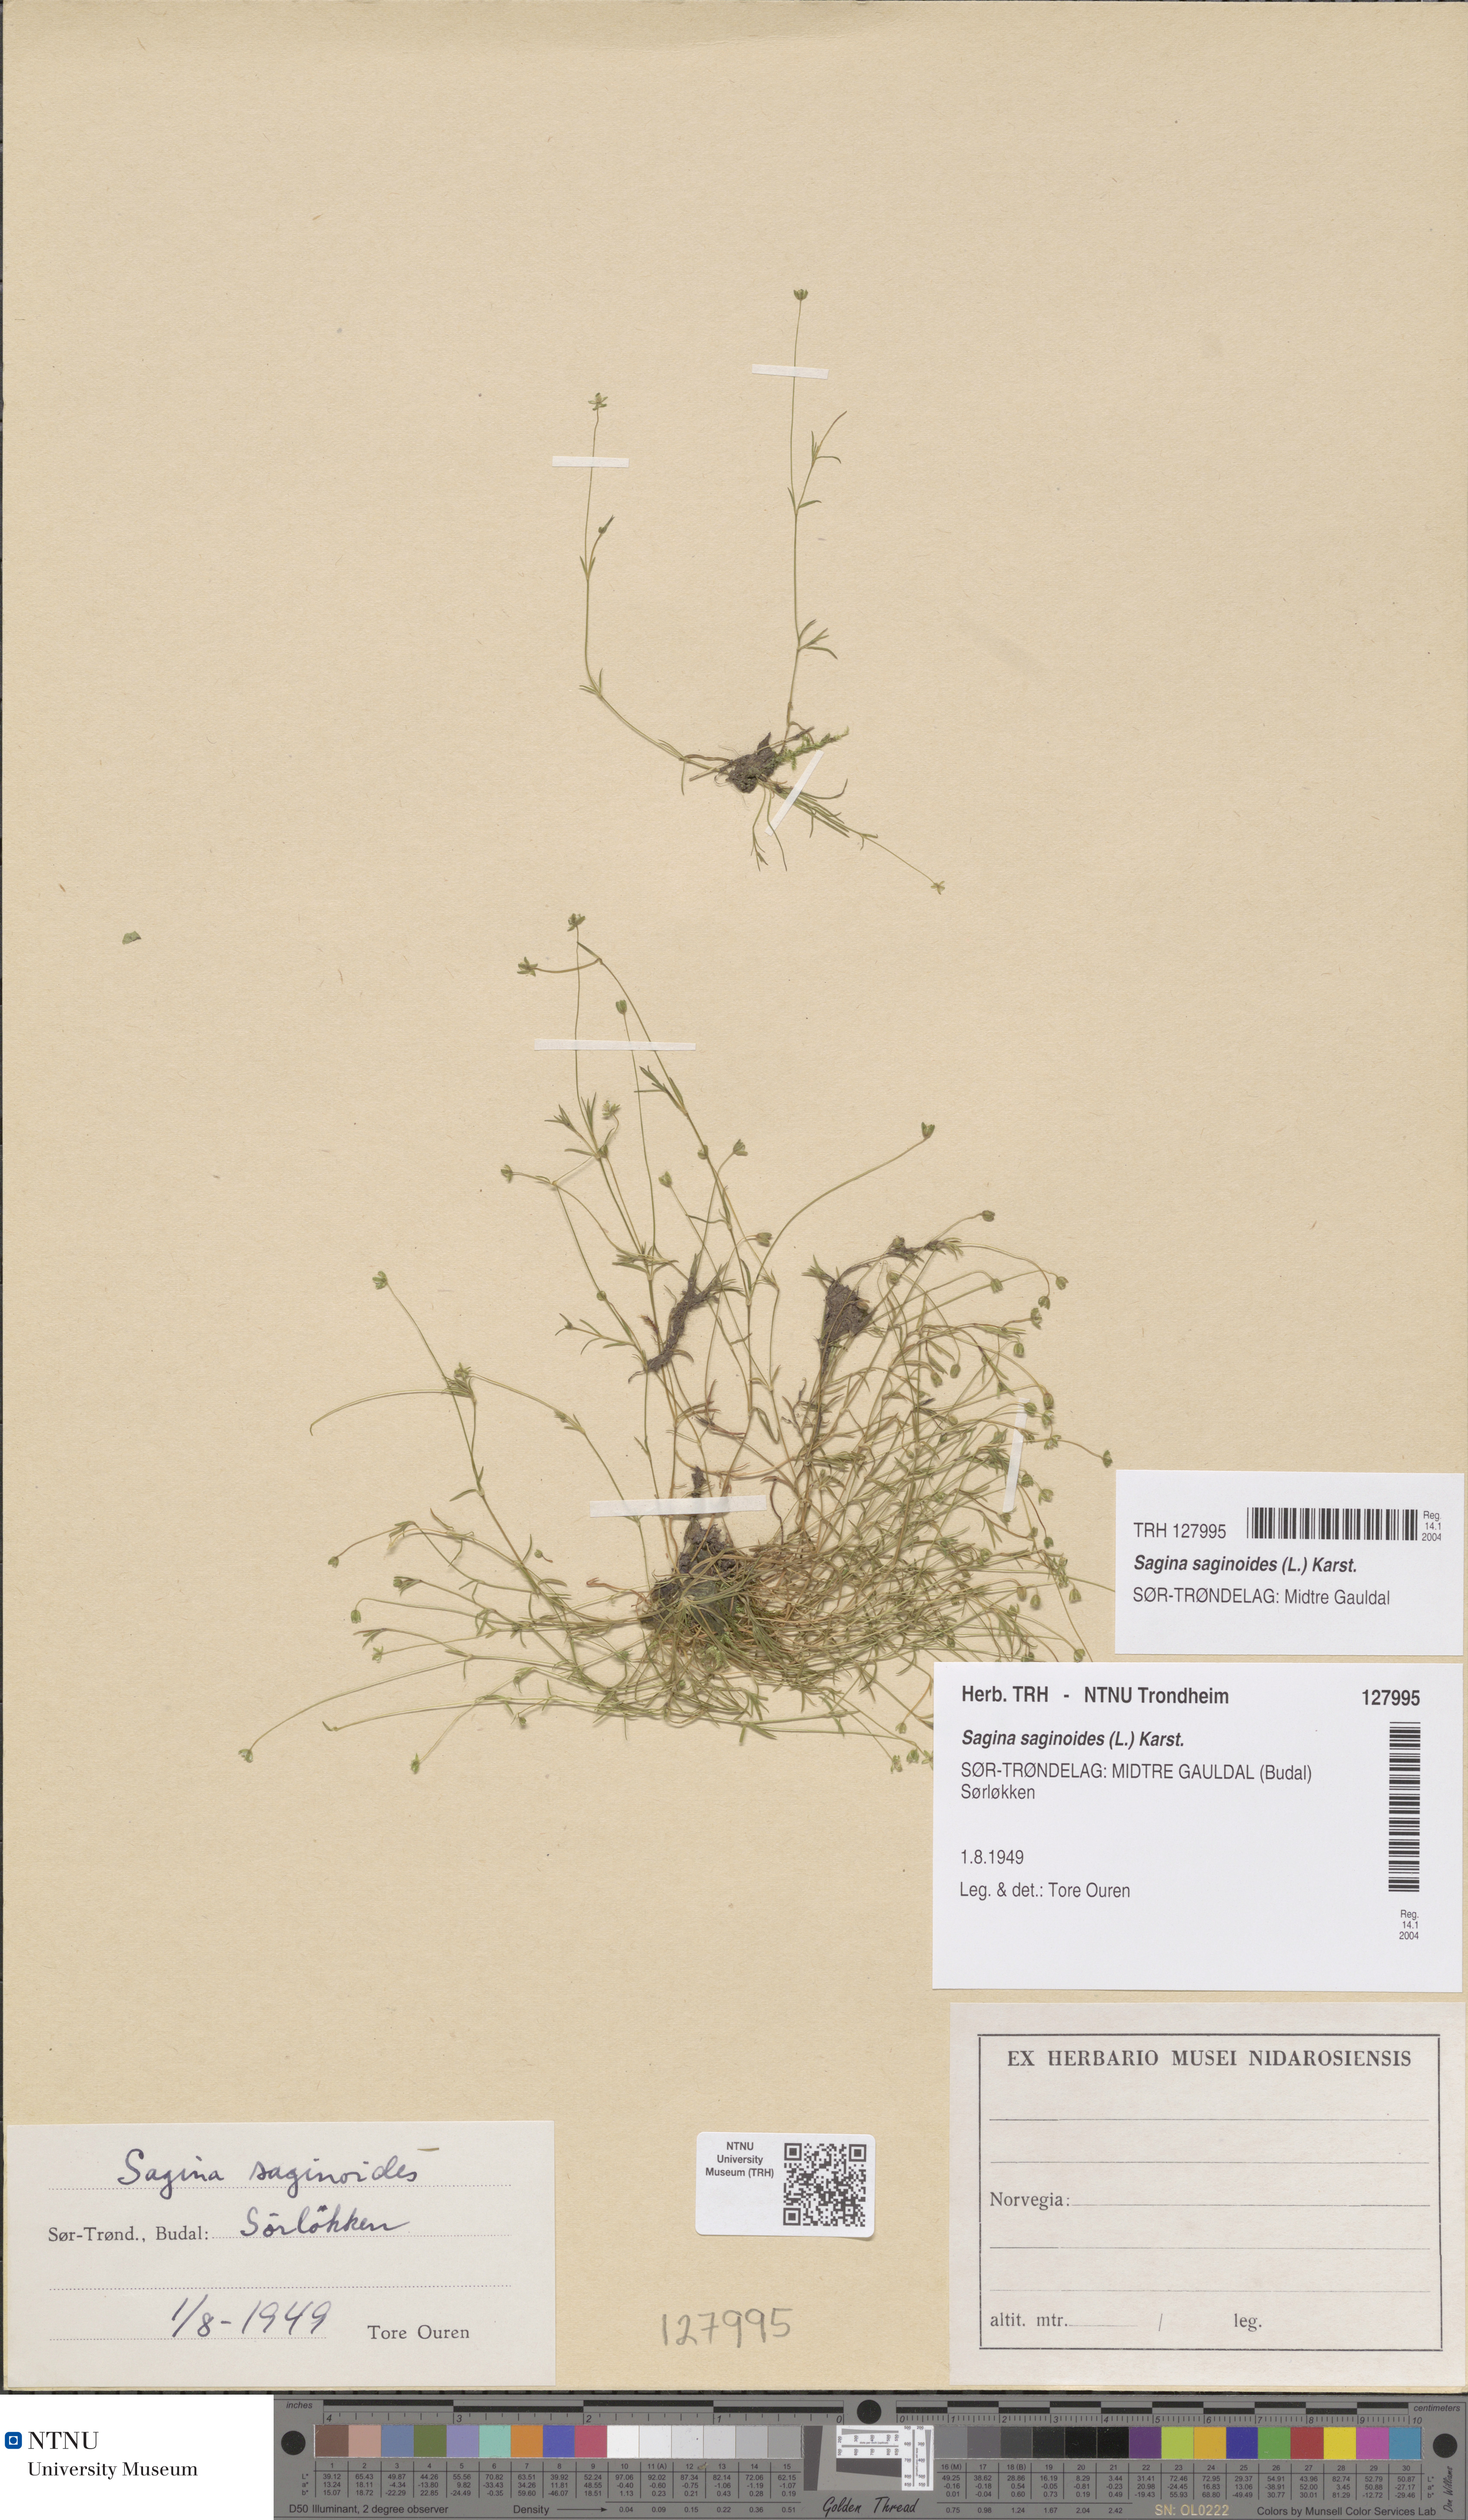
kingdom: Plantae
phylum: Tracheophyta
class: Magnoliopsida
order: Caryophyllales
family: Caryophyllaceae
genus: Sagina
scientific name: Sagina saginoides
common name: Alpine pearlwort
